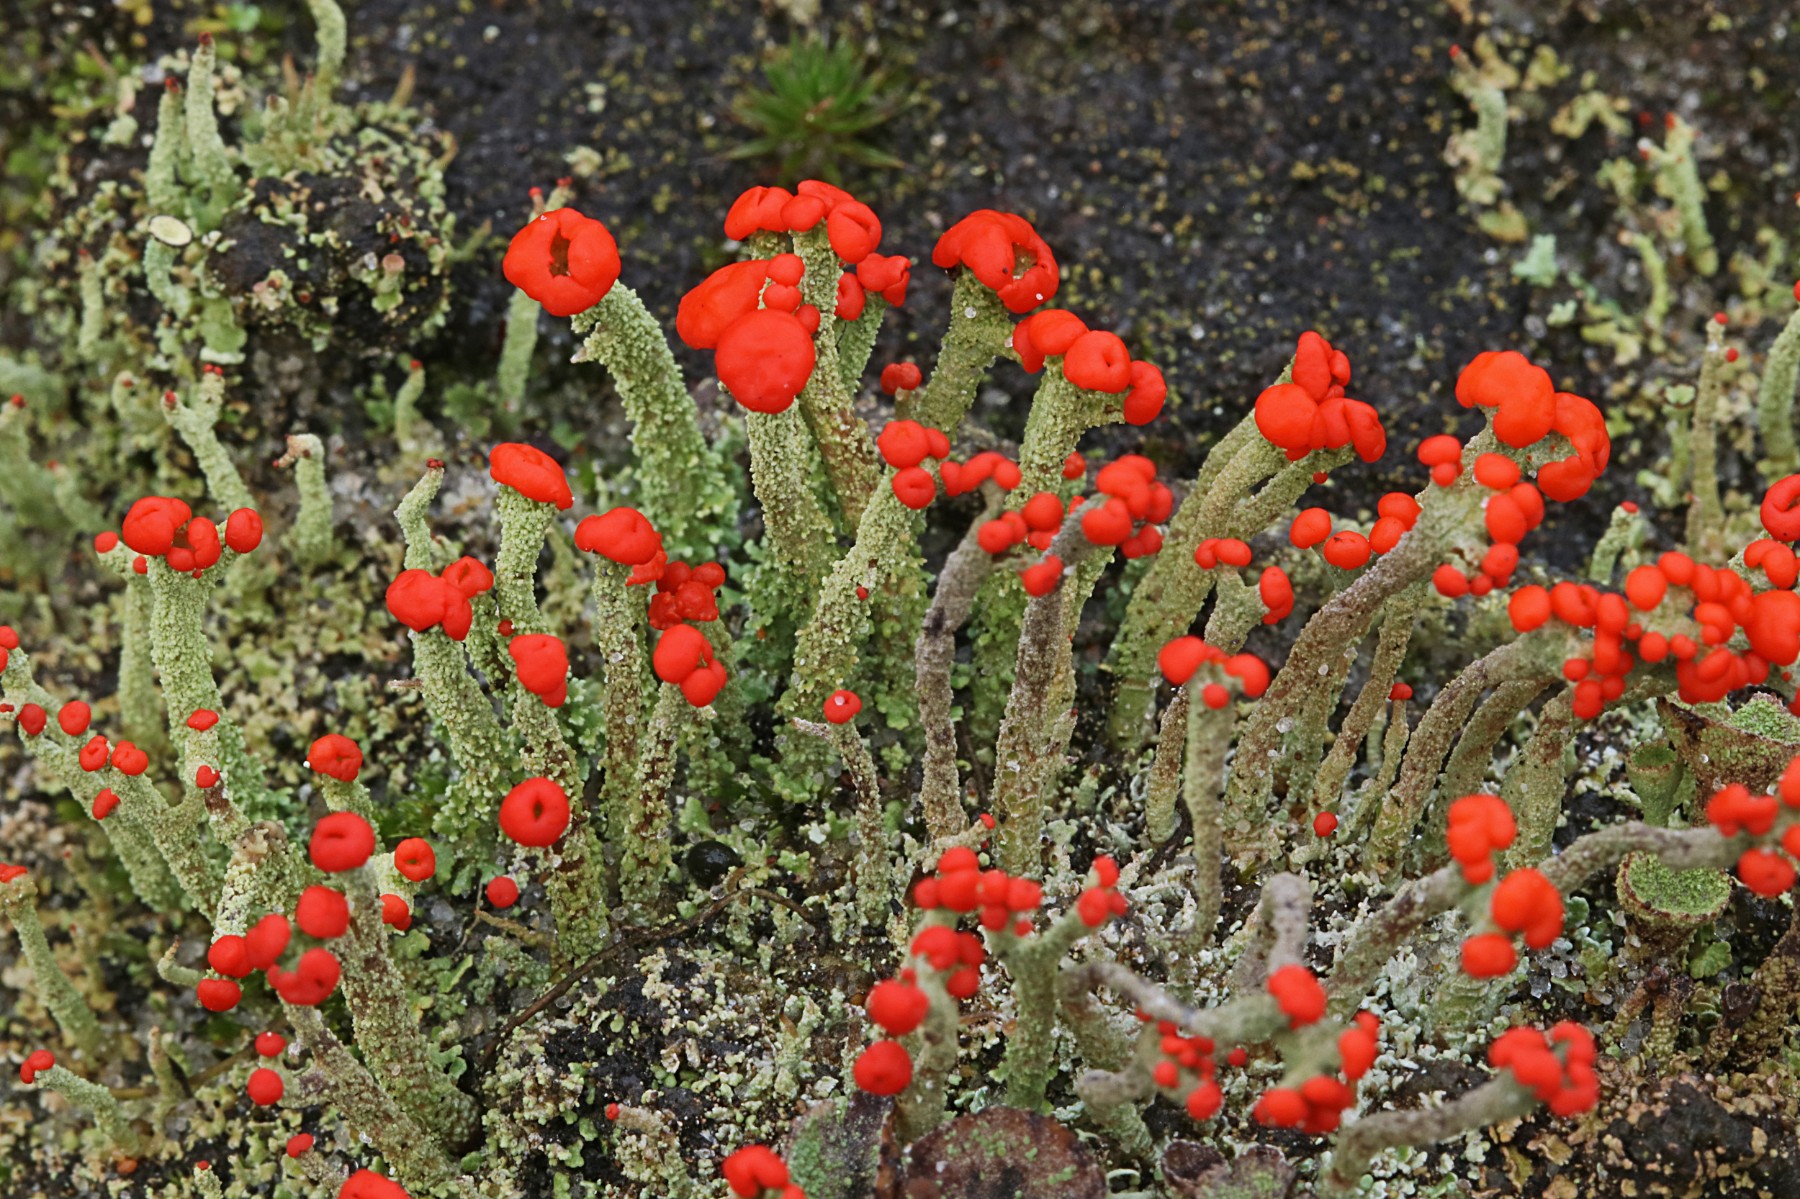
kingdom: Fungi
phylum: Ascomycota
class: Lecanoromycetes
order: Lecanorales
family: Cladoniaceae
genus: Cladonia
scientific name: Cladonia floerkeana
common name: lakrød bægerlav
